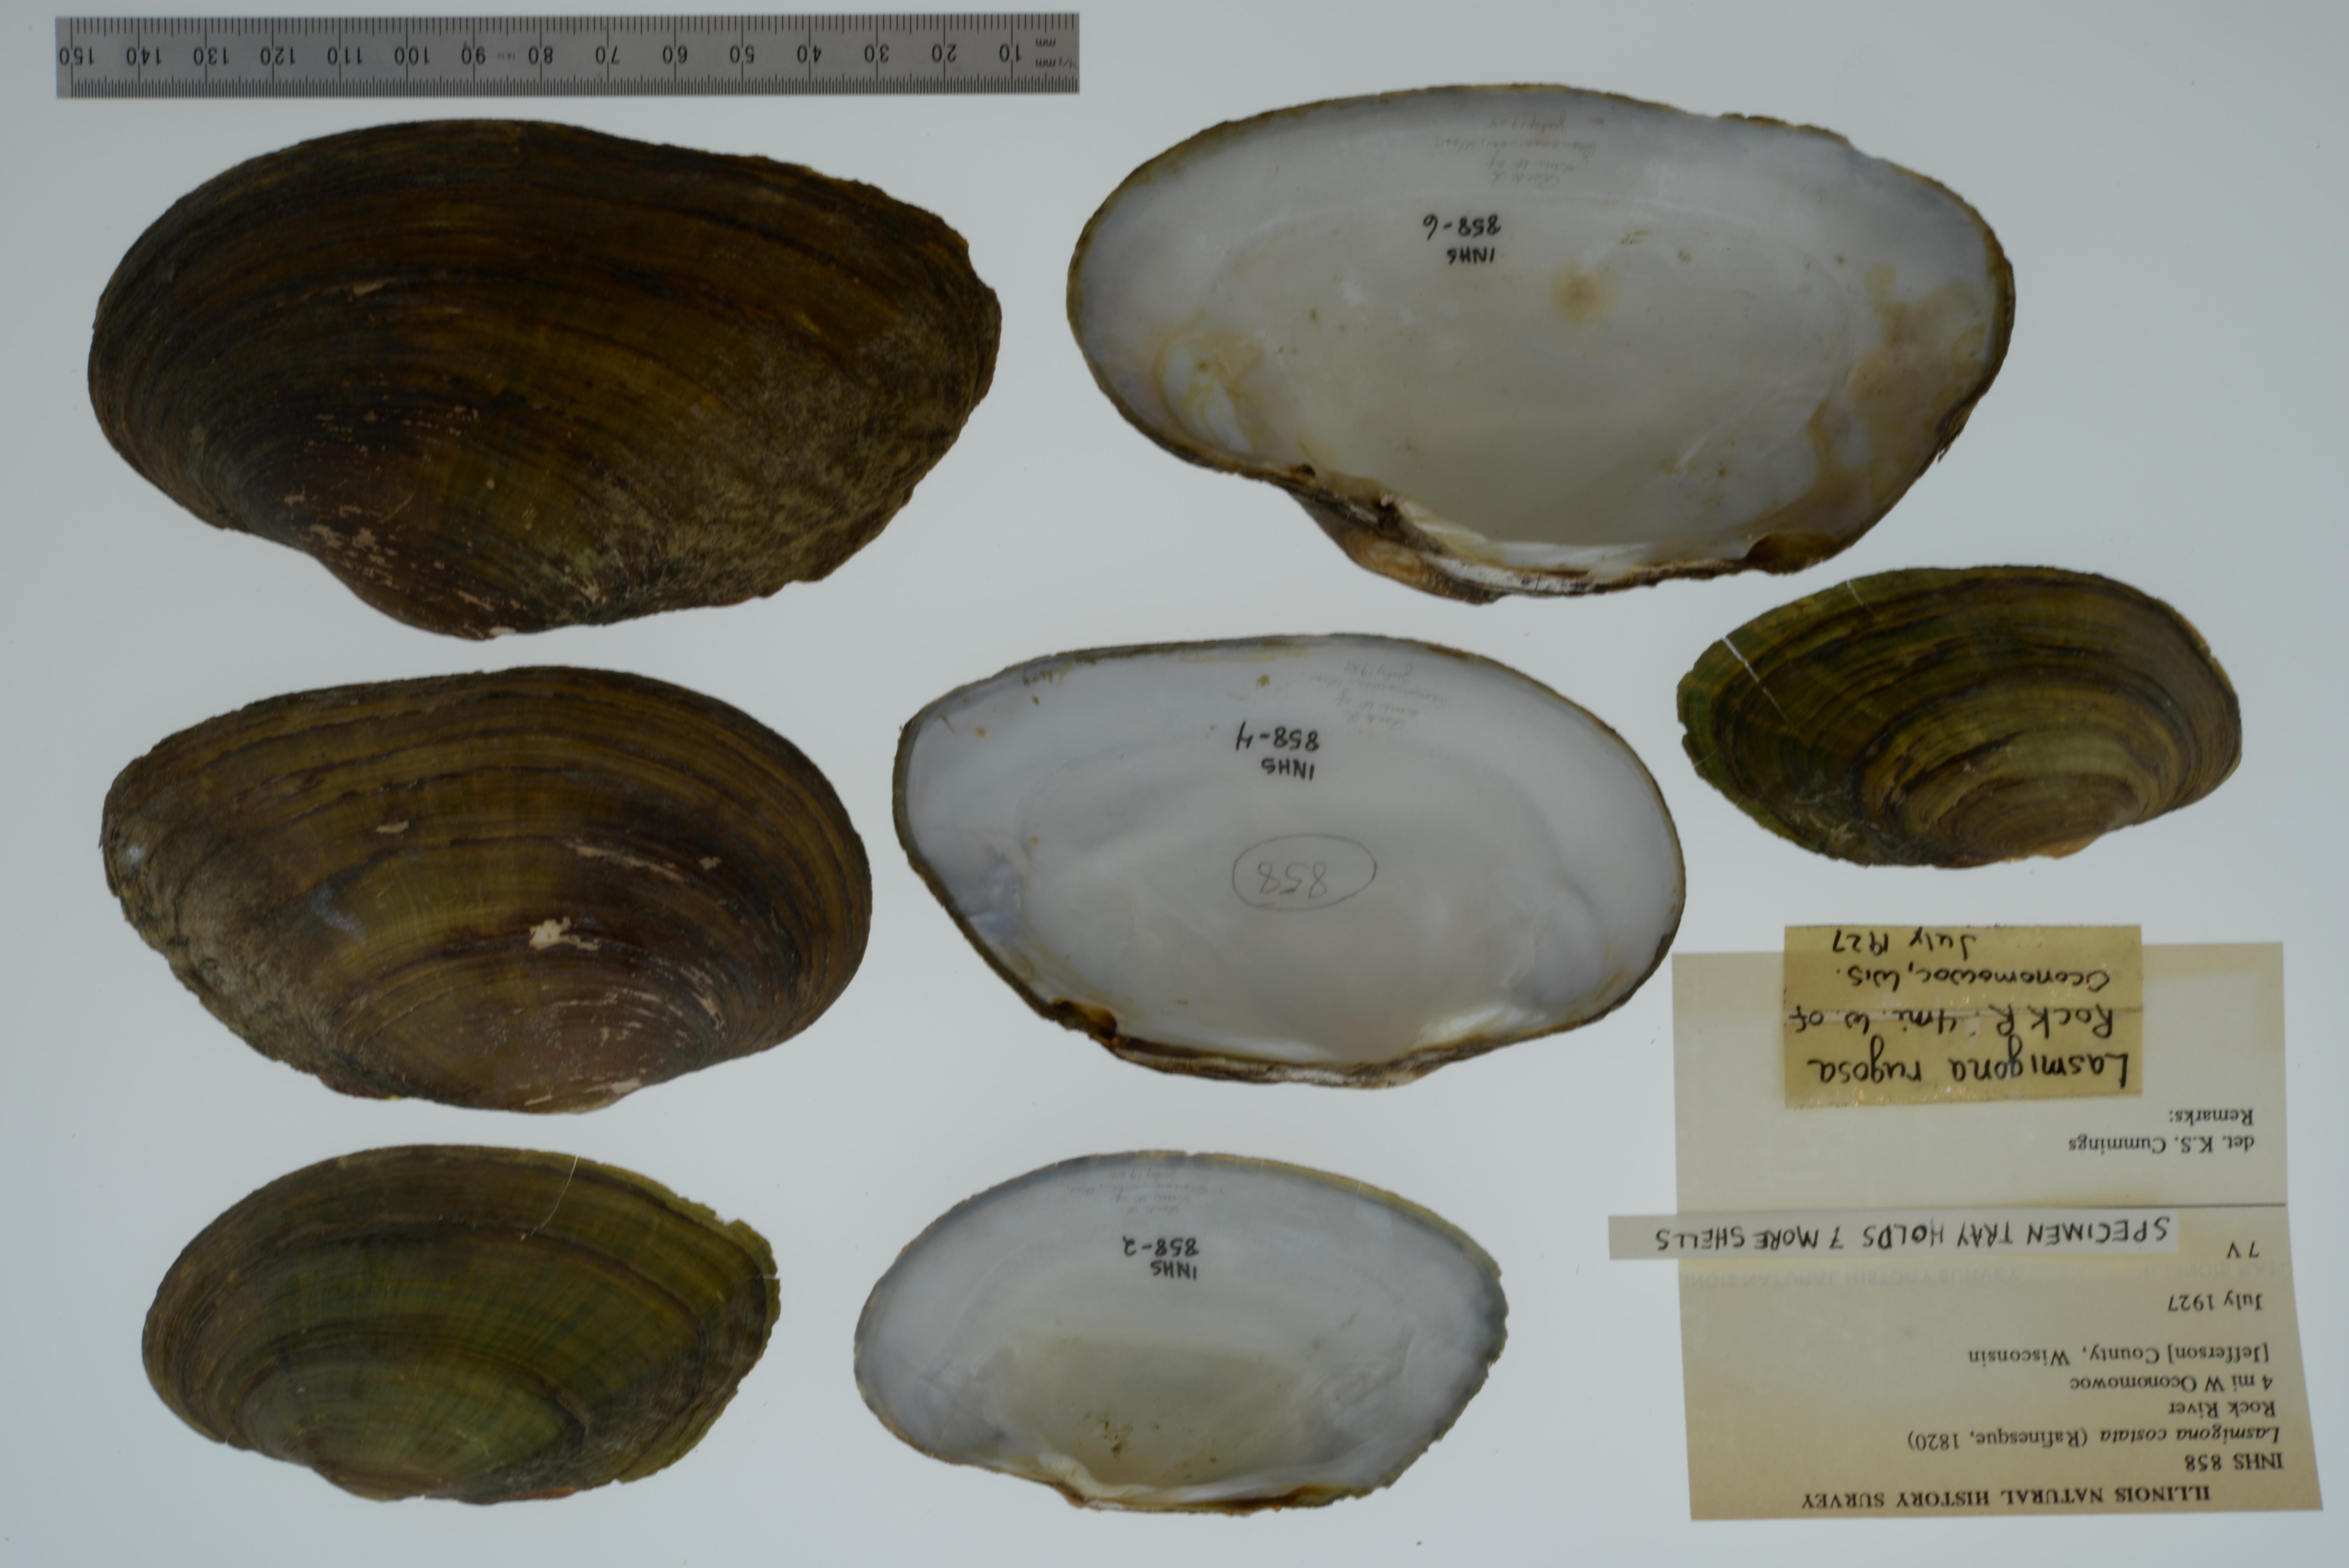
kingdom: Animalia
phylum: Mollusca
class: Bivalvia
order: Unionida
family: Unionidae
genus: Lasmigona
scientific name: Lasmigona costata
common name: Flutedshell
